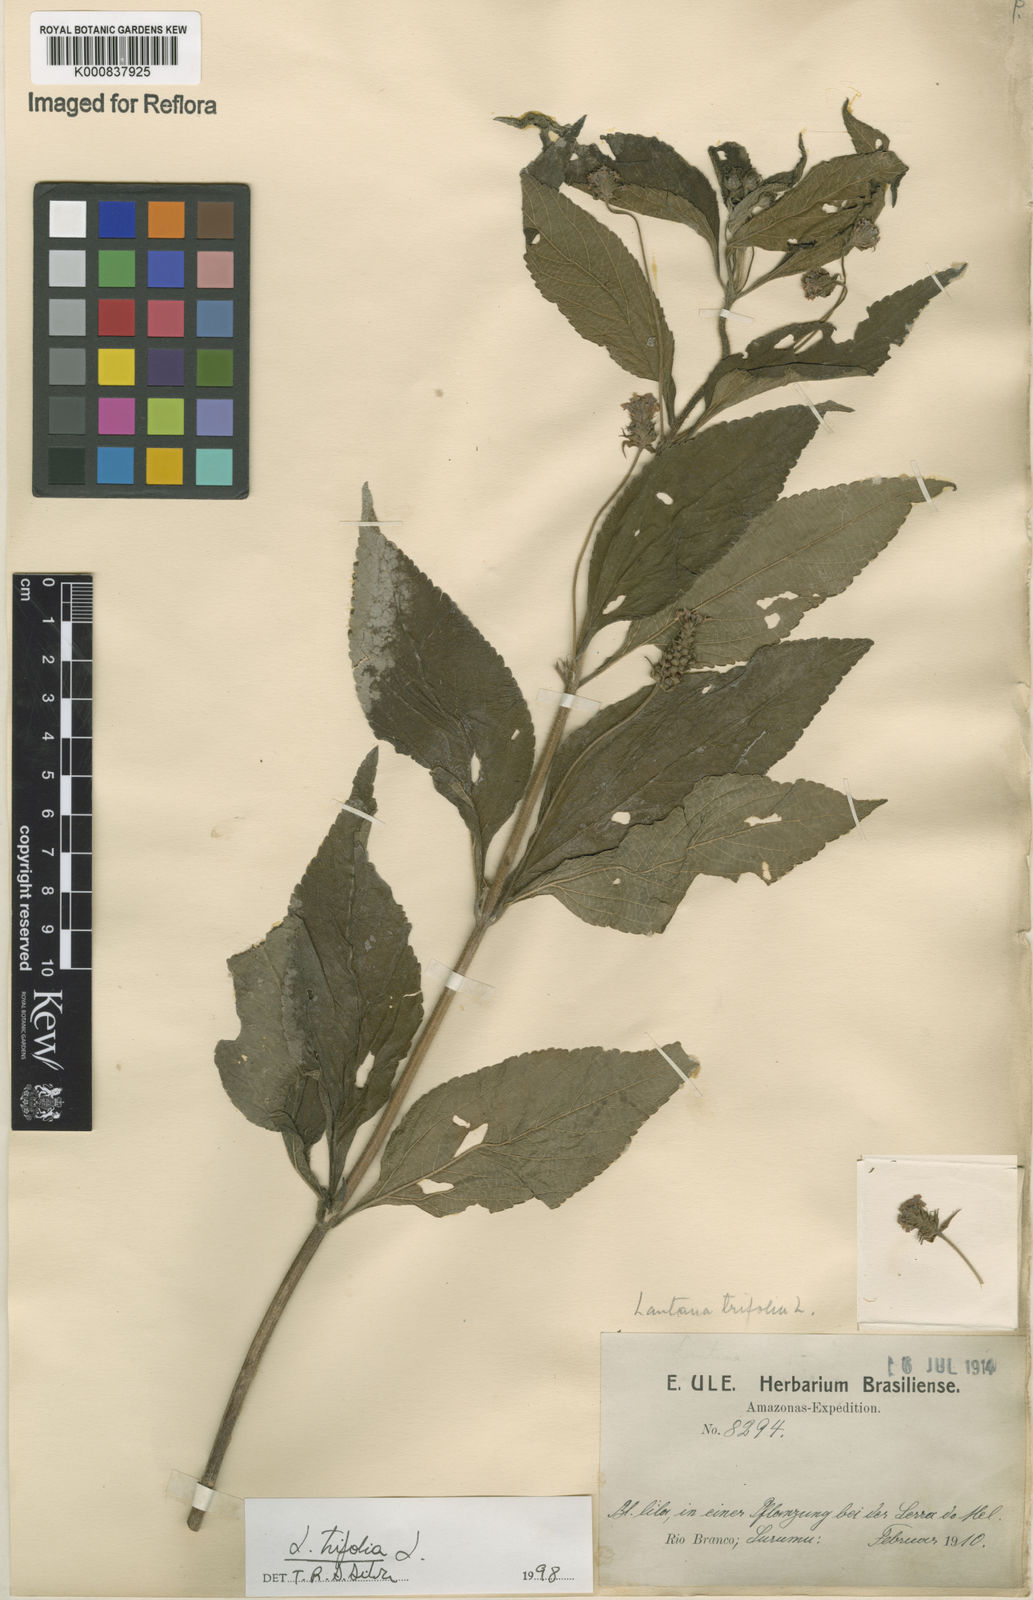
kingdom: Plantae
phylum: Tracheophyta
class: Magnoliopsida
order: Lamiales
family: Verbenaceae
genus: Lantana
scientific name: Lantana trifolia
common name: Sweet-sage
